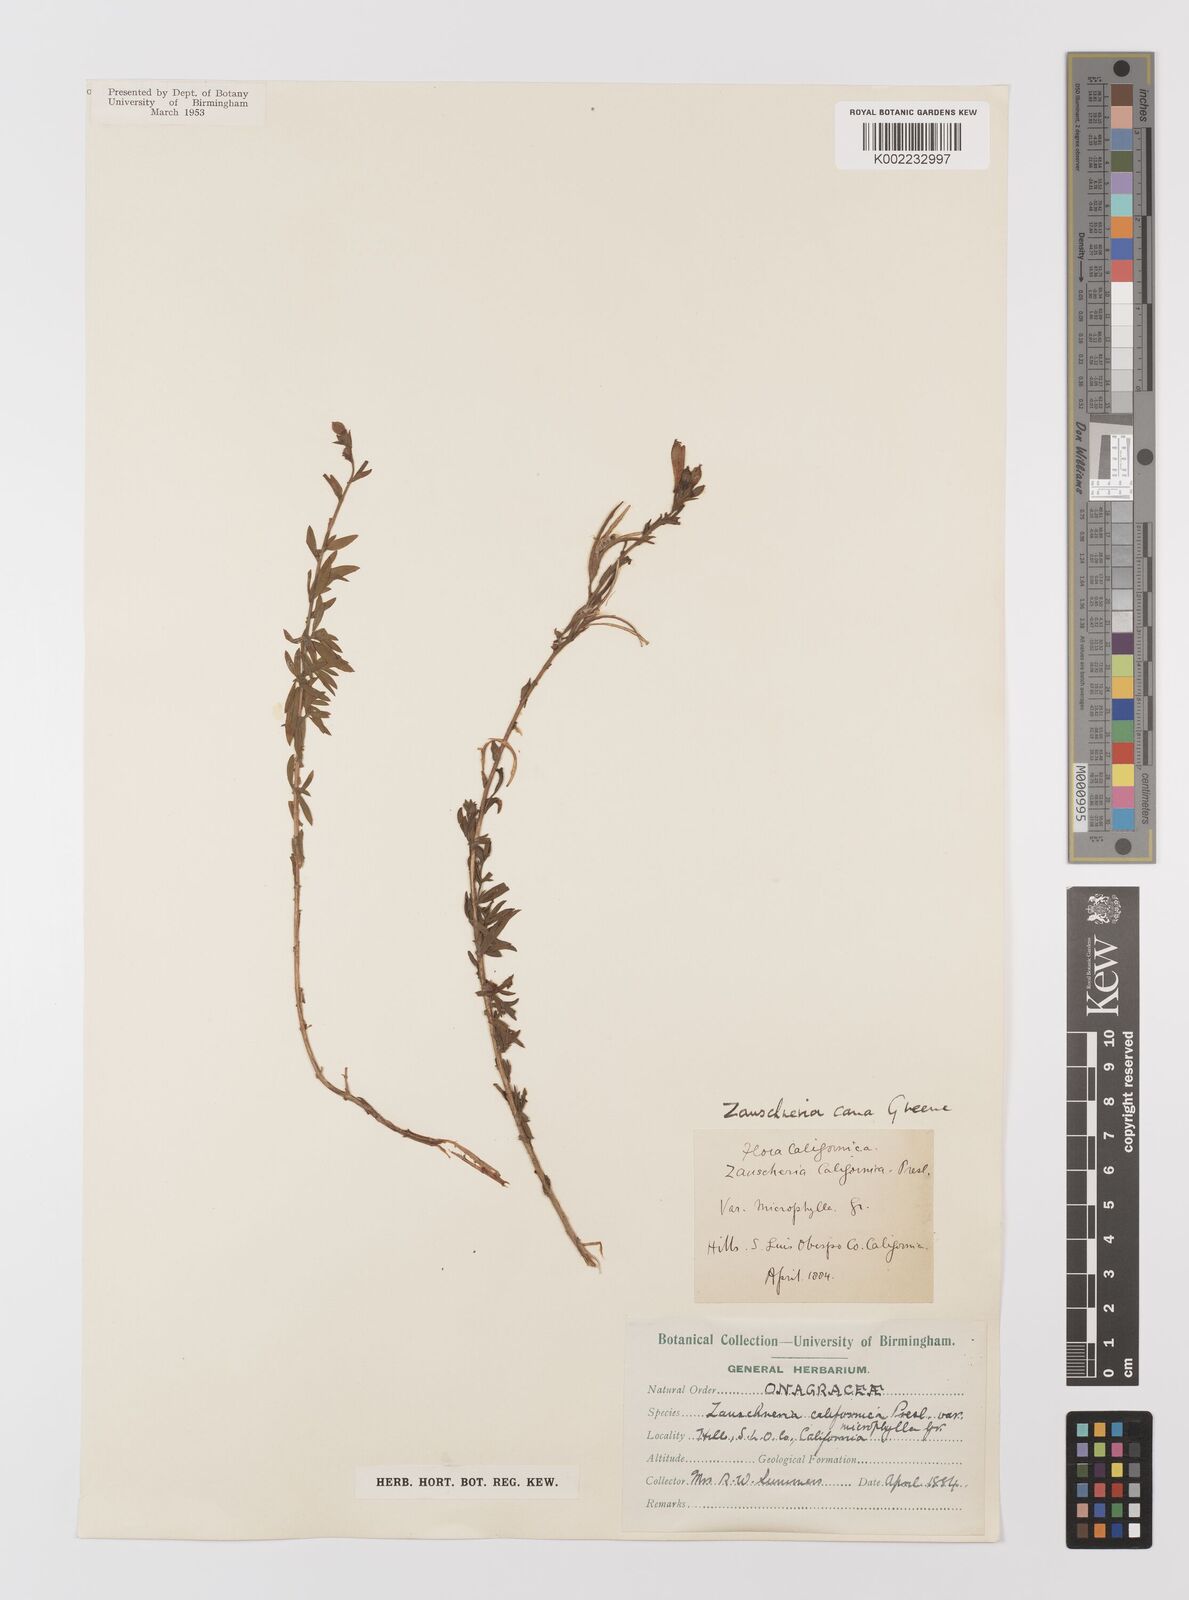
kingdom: Plantae
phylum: Tracheophyta
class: Magnoliopsida
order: Myrtales
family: Onagraceae
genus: Epilobium
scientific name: Epilobium canum
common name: California-fuchsia
